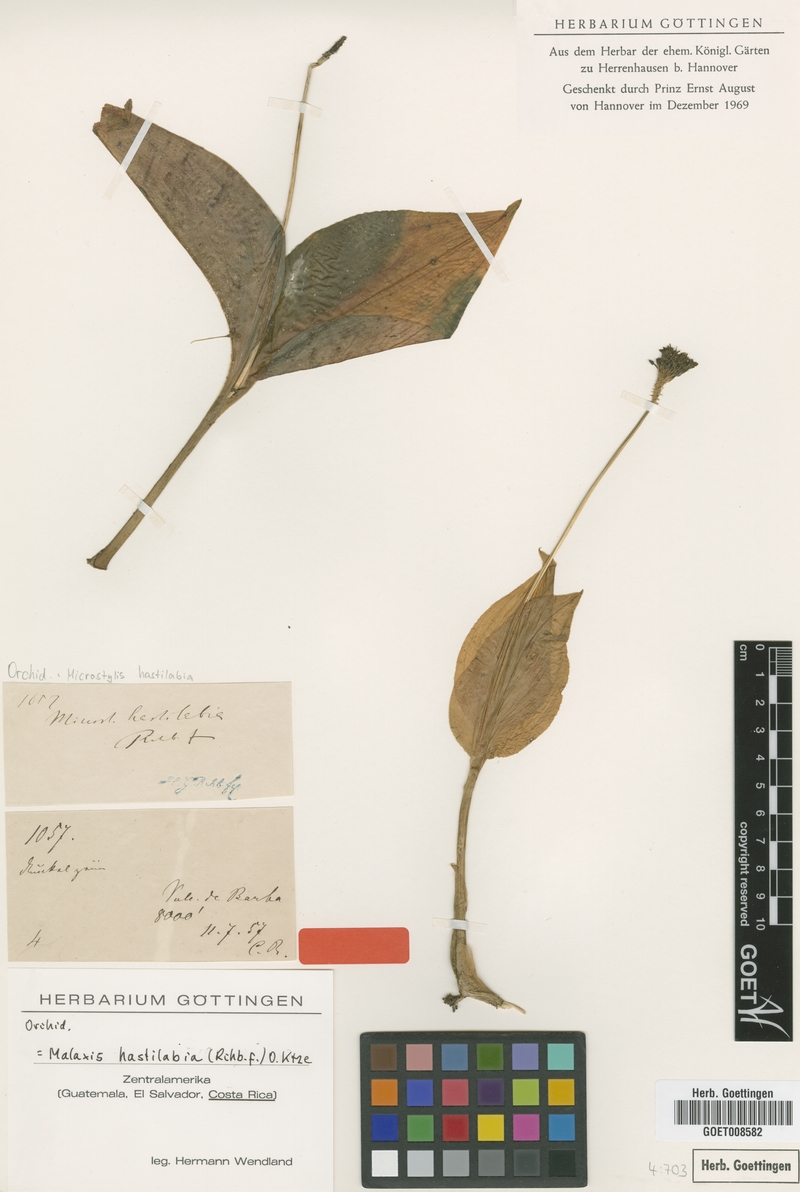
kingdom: Plantae
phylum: Tracheophyta
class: Liliopsida
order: Asparagales
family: Orchidaceae
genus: Malaxis
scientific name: Malaxis excavata
